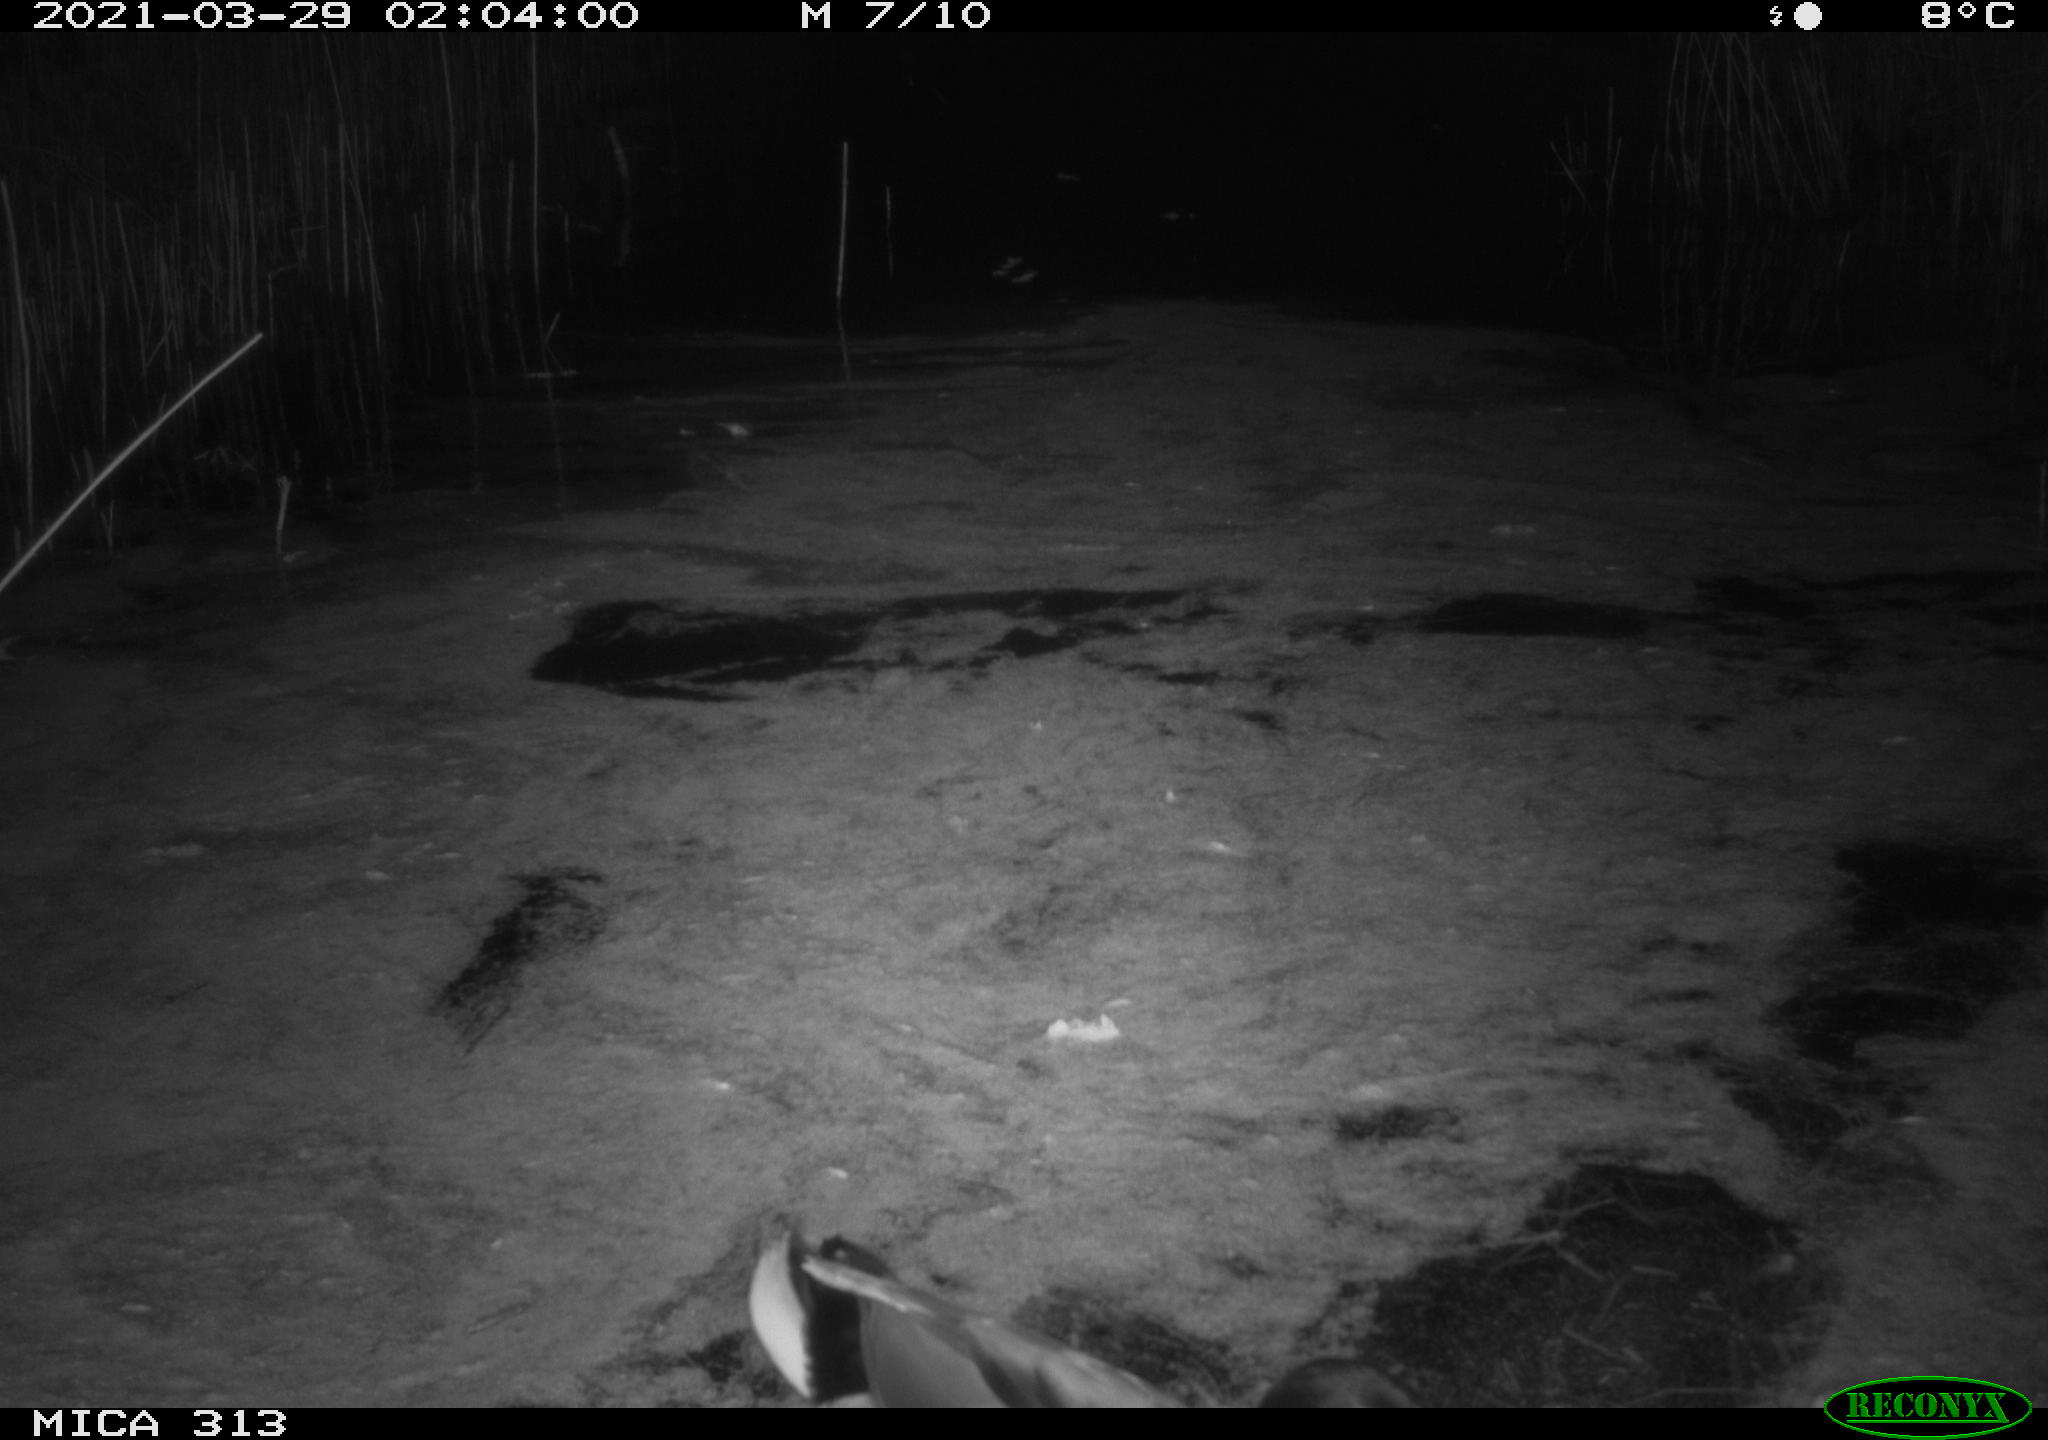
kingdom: Animalia
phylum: Chordata
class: Aves
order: Gruiformes
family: Rallidae
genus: Fulica
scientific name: Fulica atra
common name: Eurasian coot
